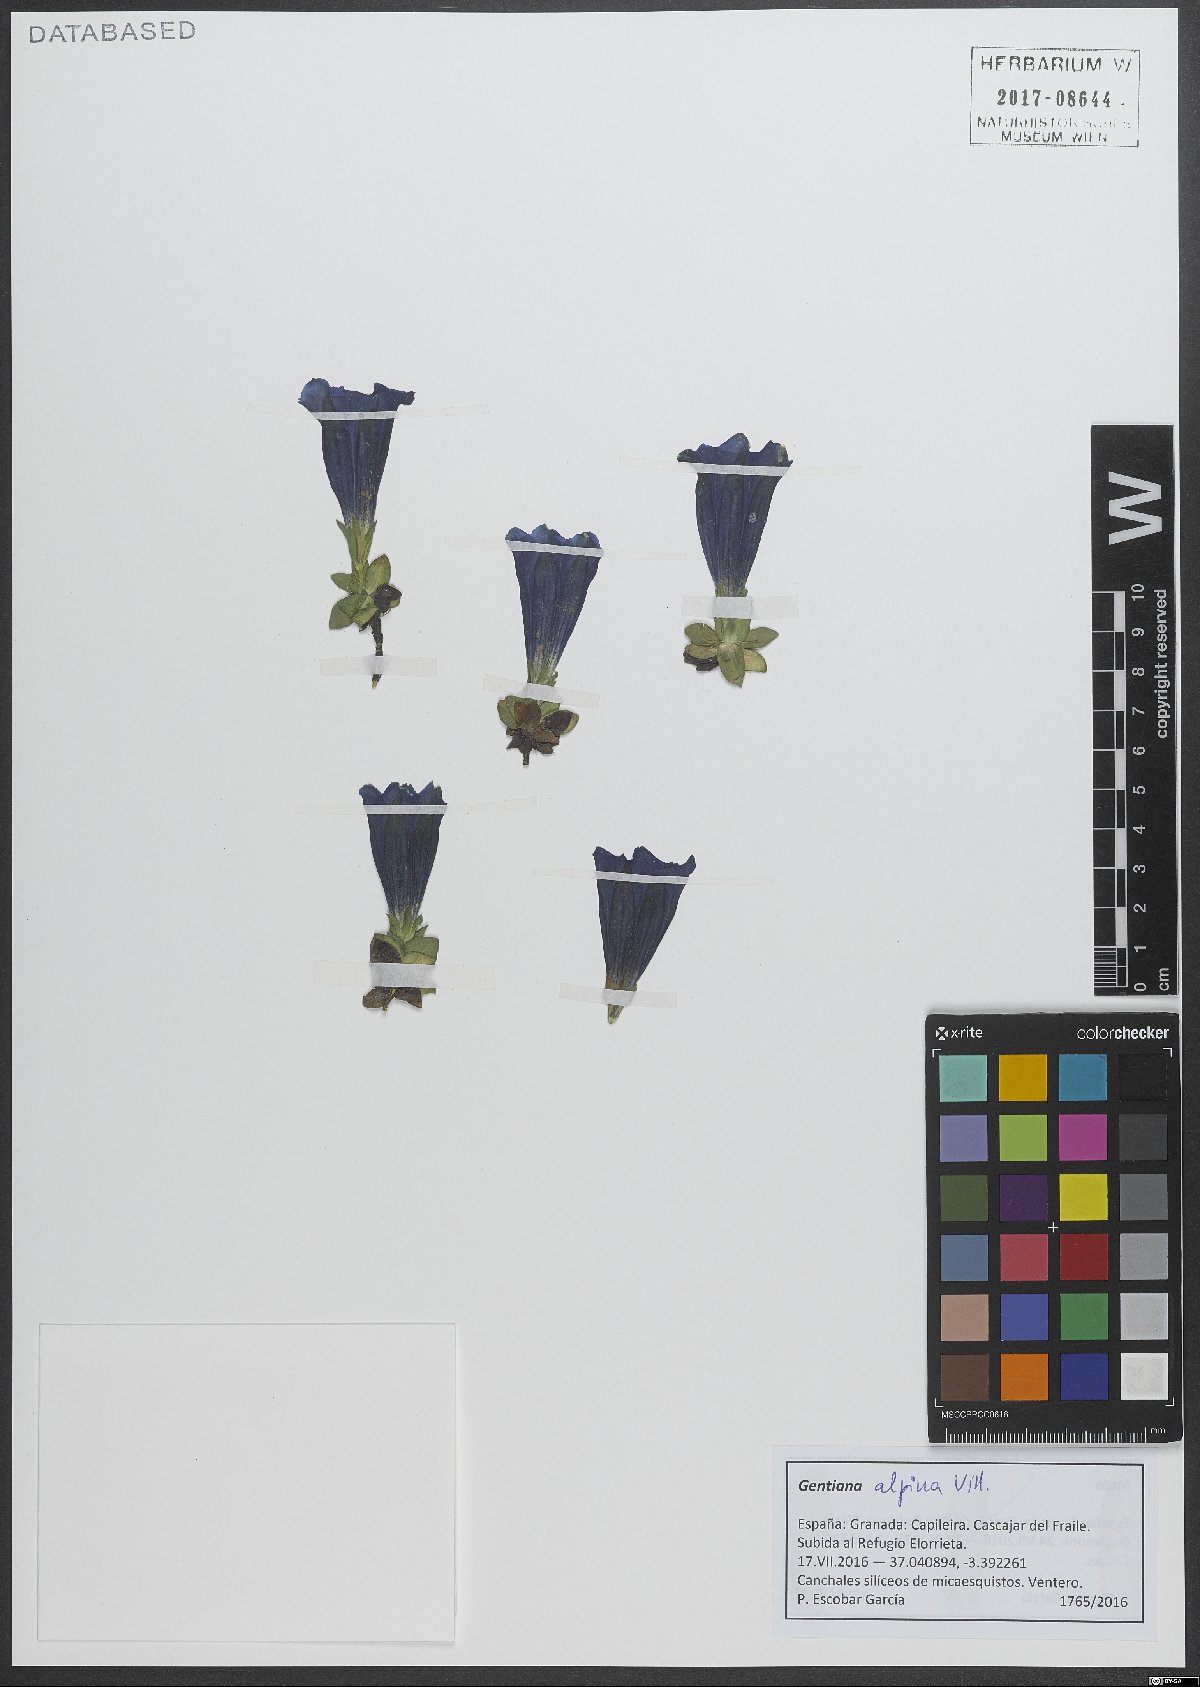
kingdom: Plantae
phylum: Tracheophyta
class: Magnoliopsida
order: Gentianales
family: Gentianaceae
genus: Gentiana
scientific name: Gentiana alpina
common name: Southern gentian
